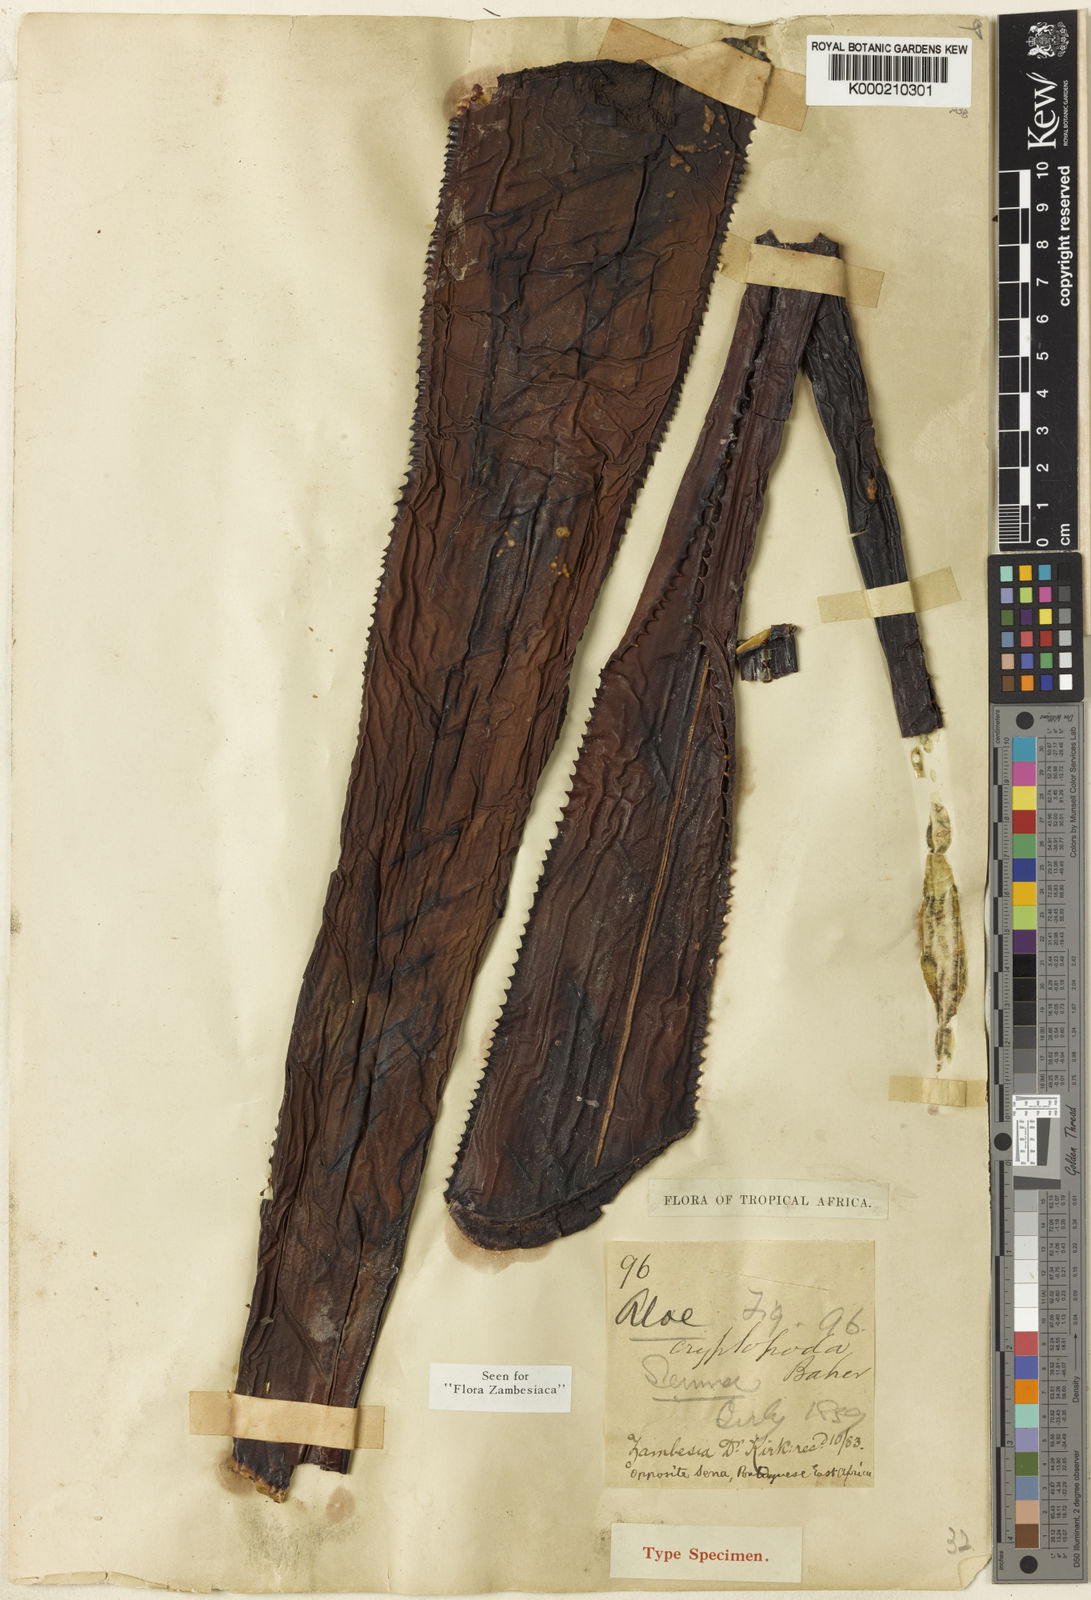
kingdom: Plantae
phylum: Tracheophyta
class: Liliopsida
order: Asparagales
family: Asphodelaceae
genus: Aloe
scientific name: Aloe cryptopoda
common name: Dr. kirk's aloe
